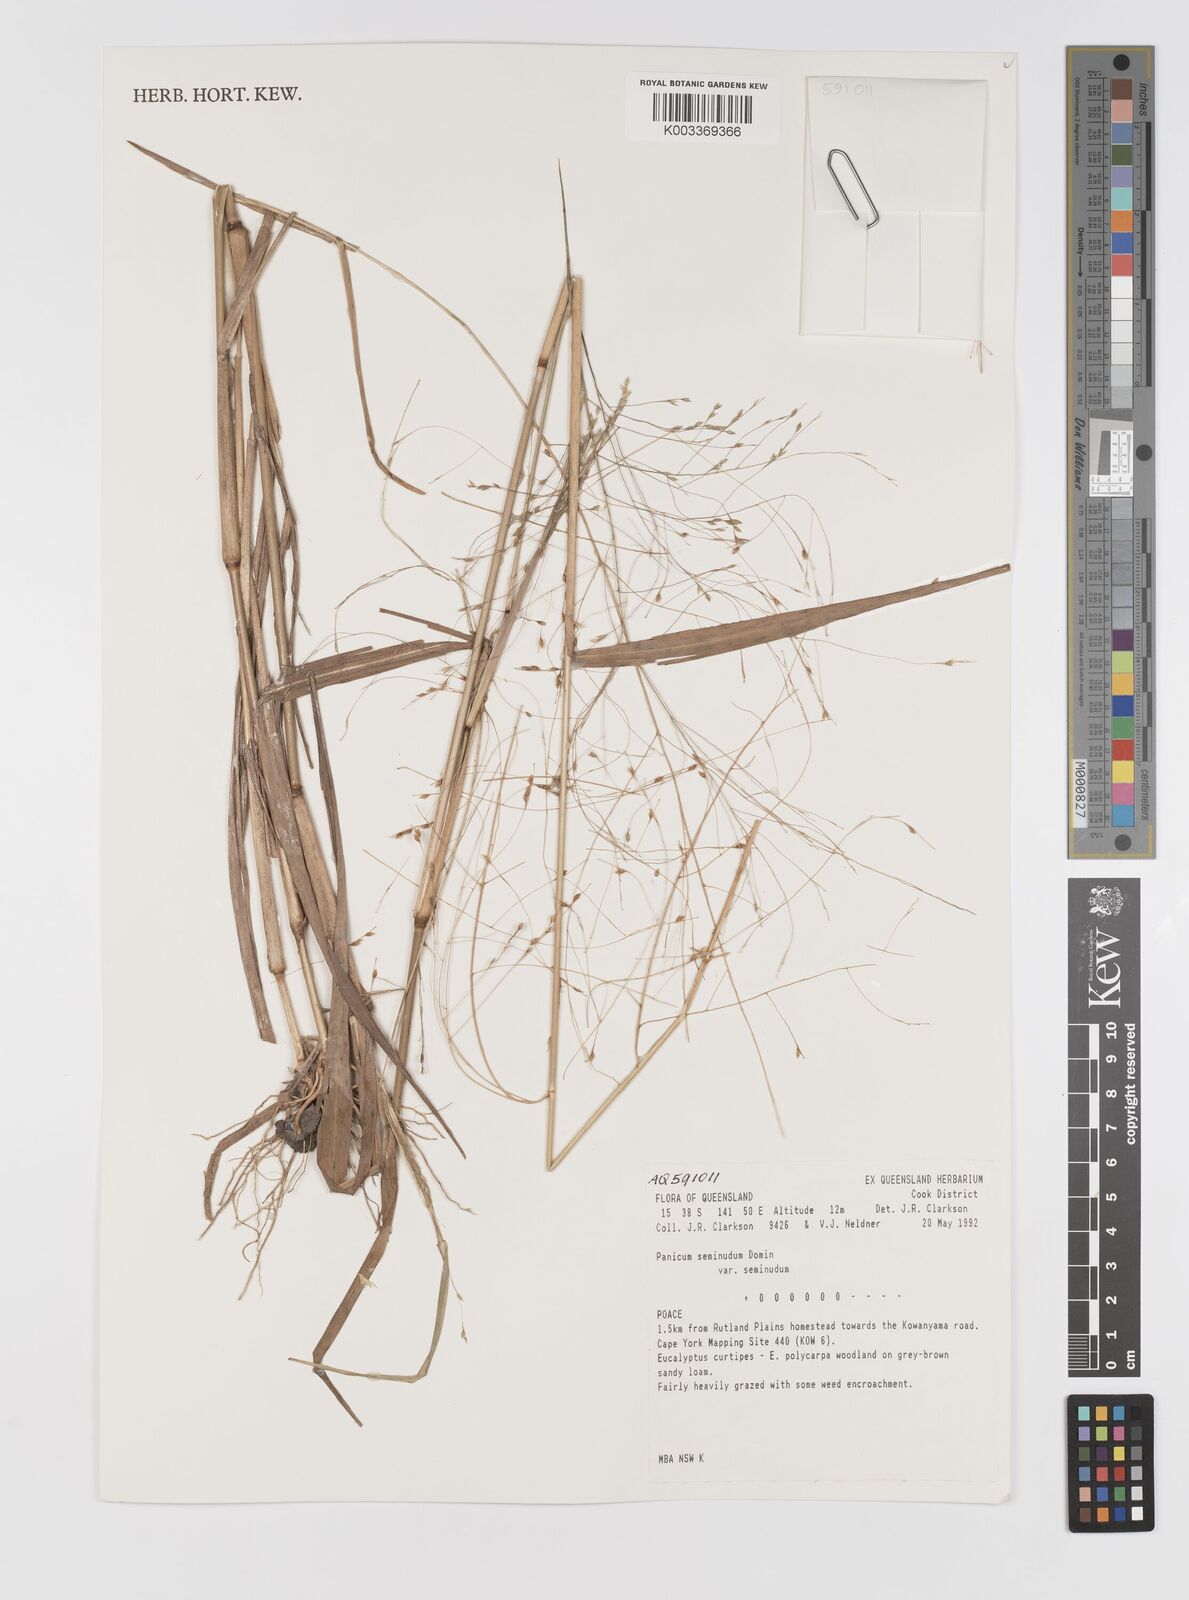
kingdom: Plantae
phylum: Tracheophyta
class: Liliopsida
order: Poales
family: Poaceae
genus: Panicum
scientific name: Panicum seminudum
